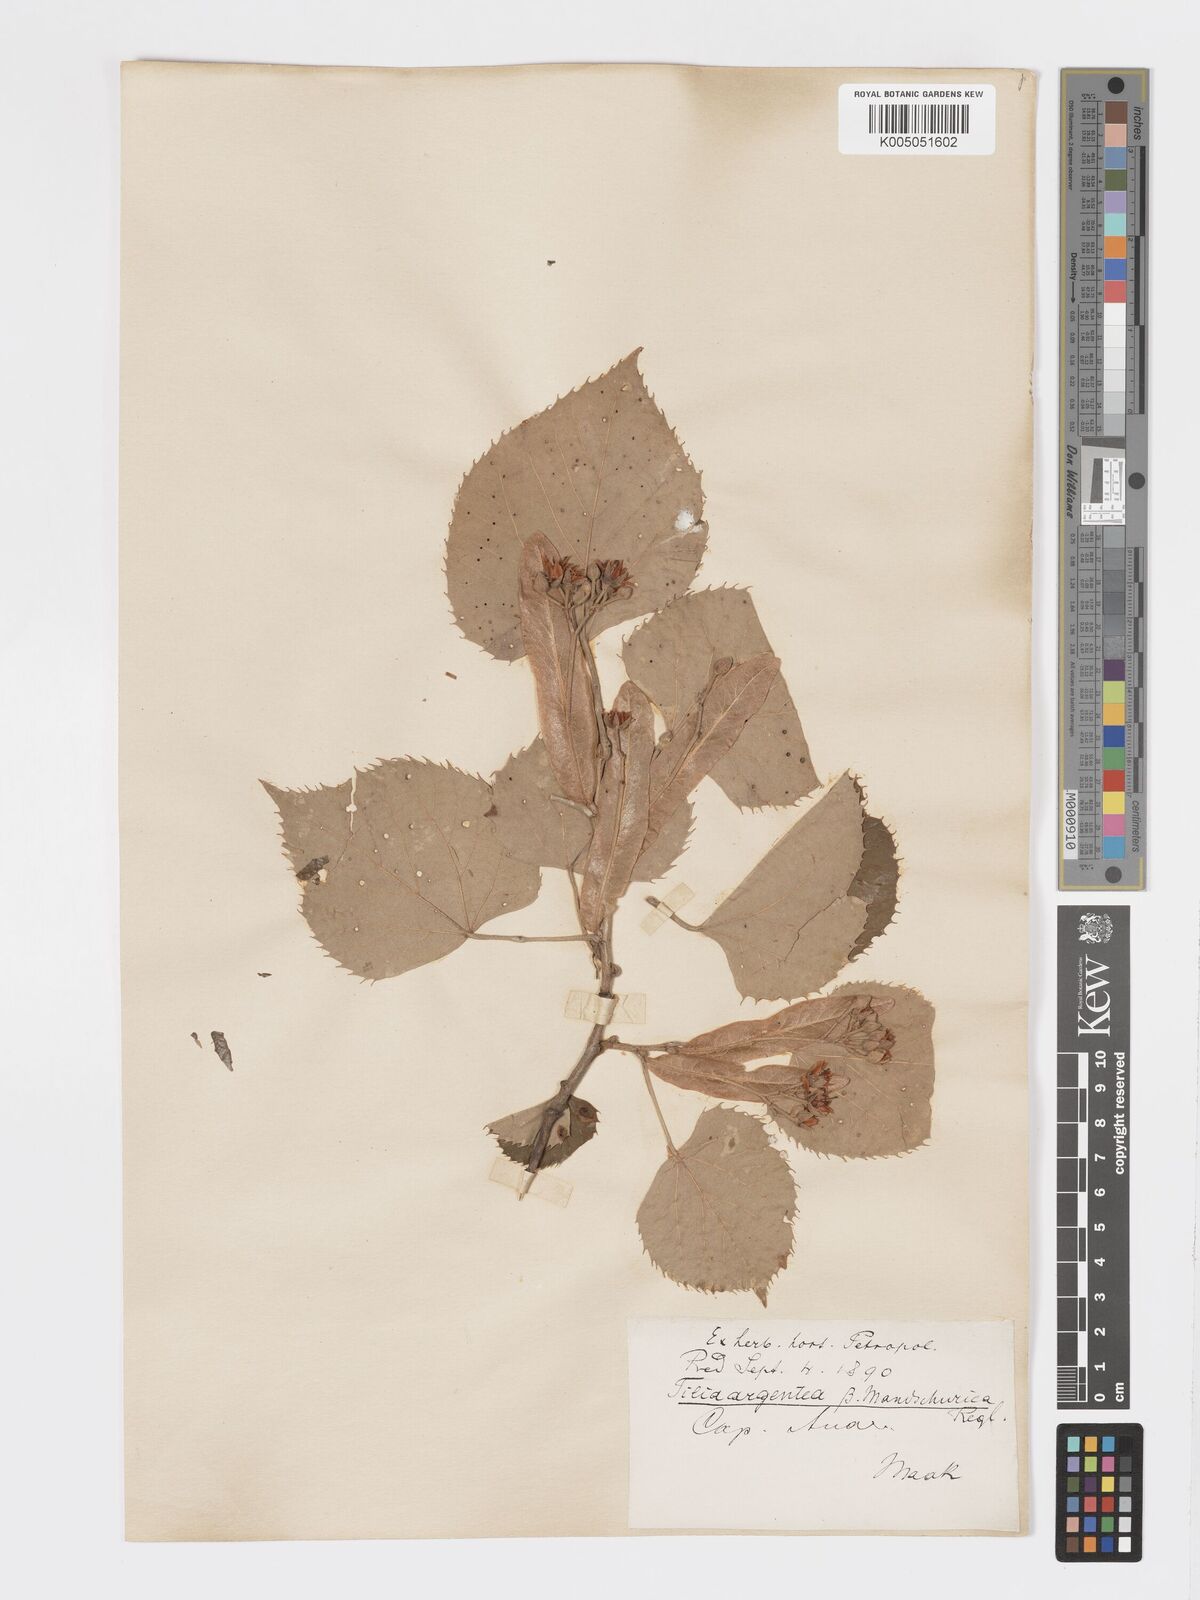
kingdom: Plantae
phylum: Tracheophyta
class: Magnoliopsida
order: Malvales
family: Malvaceae
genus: Tilia
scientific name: Tilia mandshurica
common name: Manchurian linden
